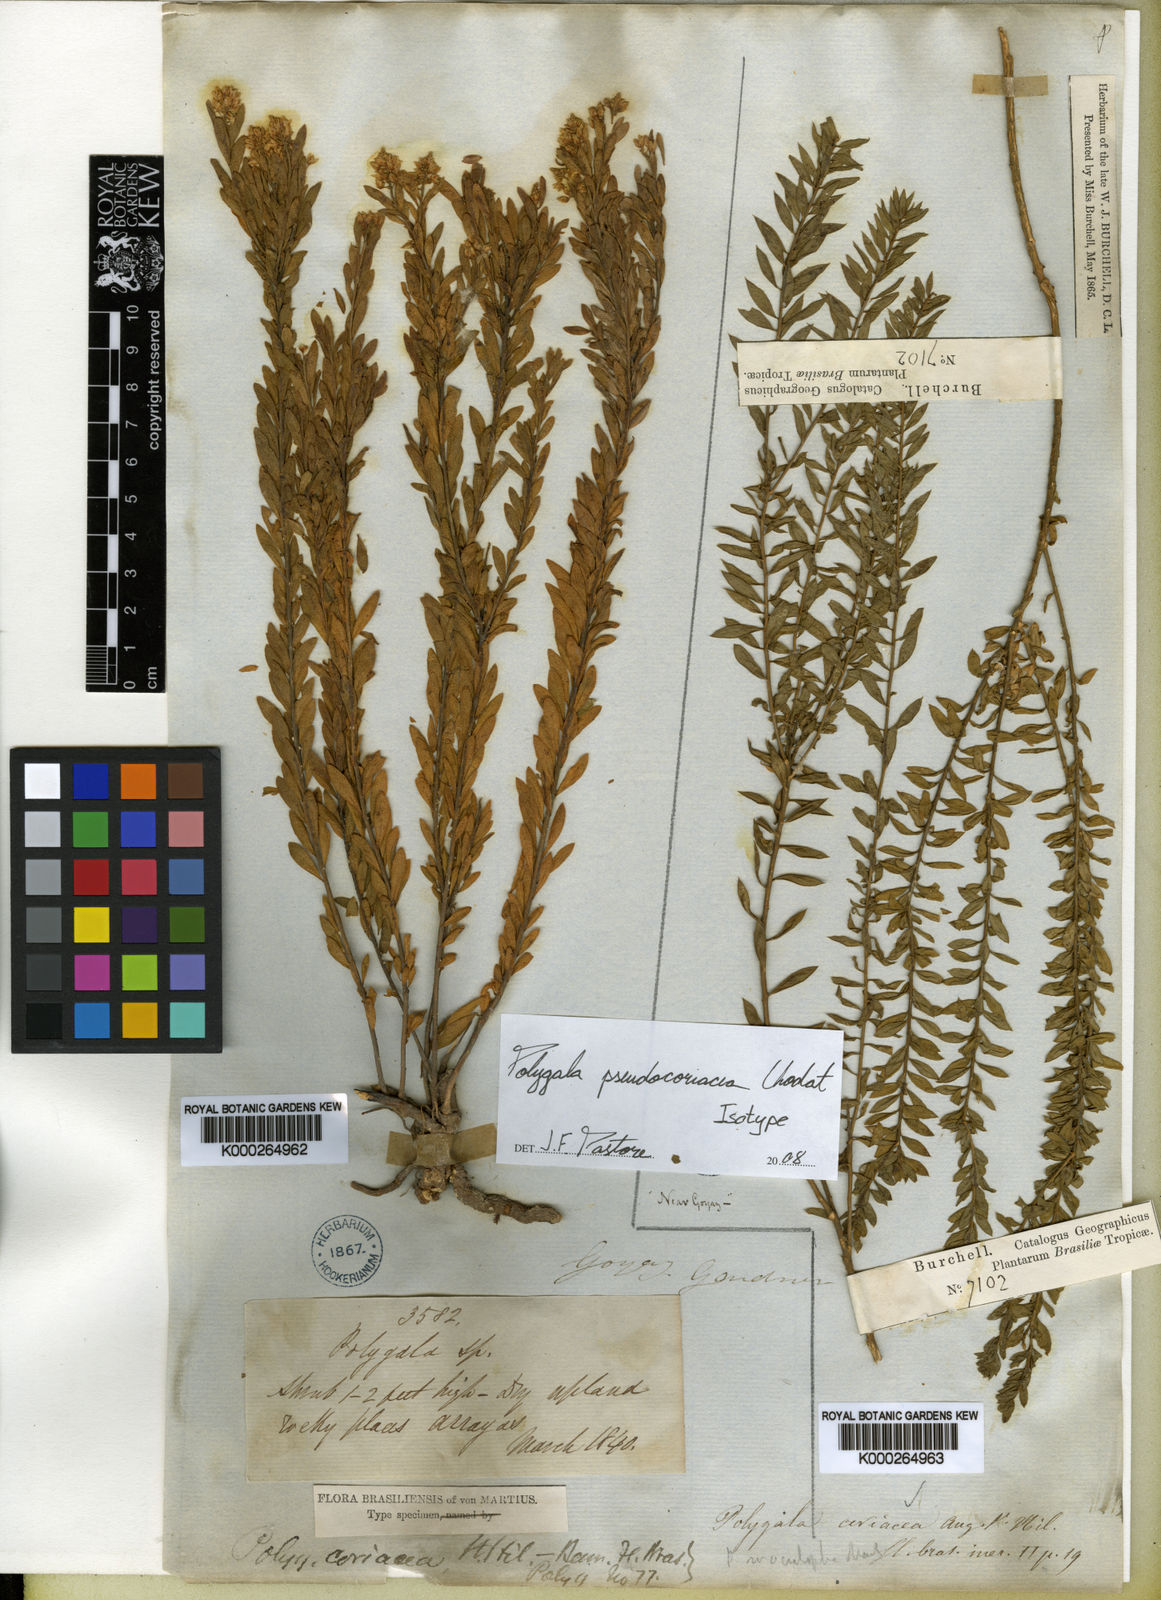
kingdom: Plantae
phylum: Tracheophyta
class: Magnoliopsida
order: Fabales
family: Polygalaceae
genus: Polygala
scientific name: Polygala pseudocoriacea
